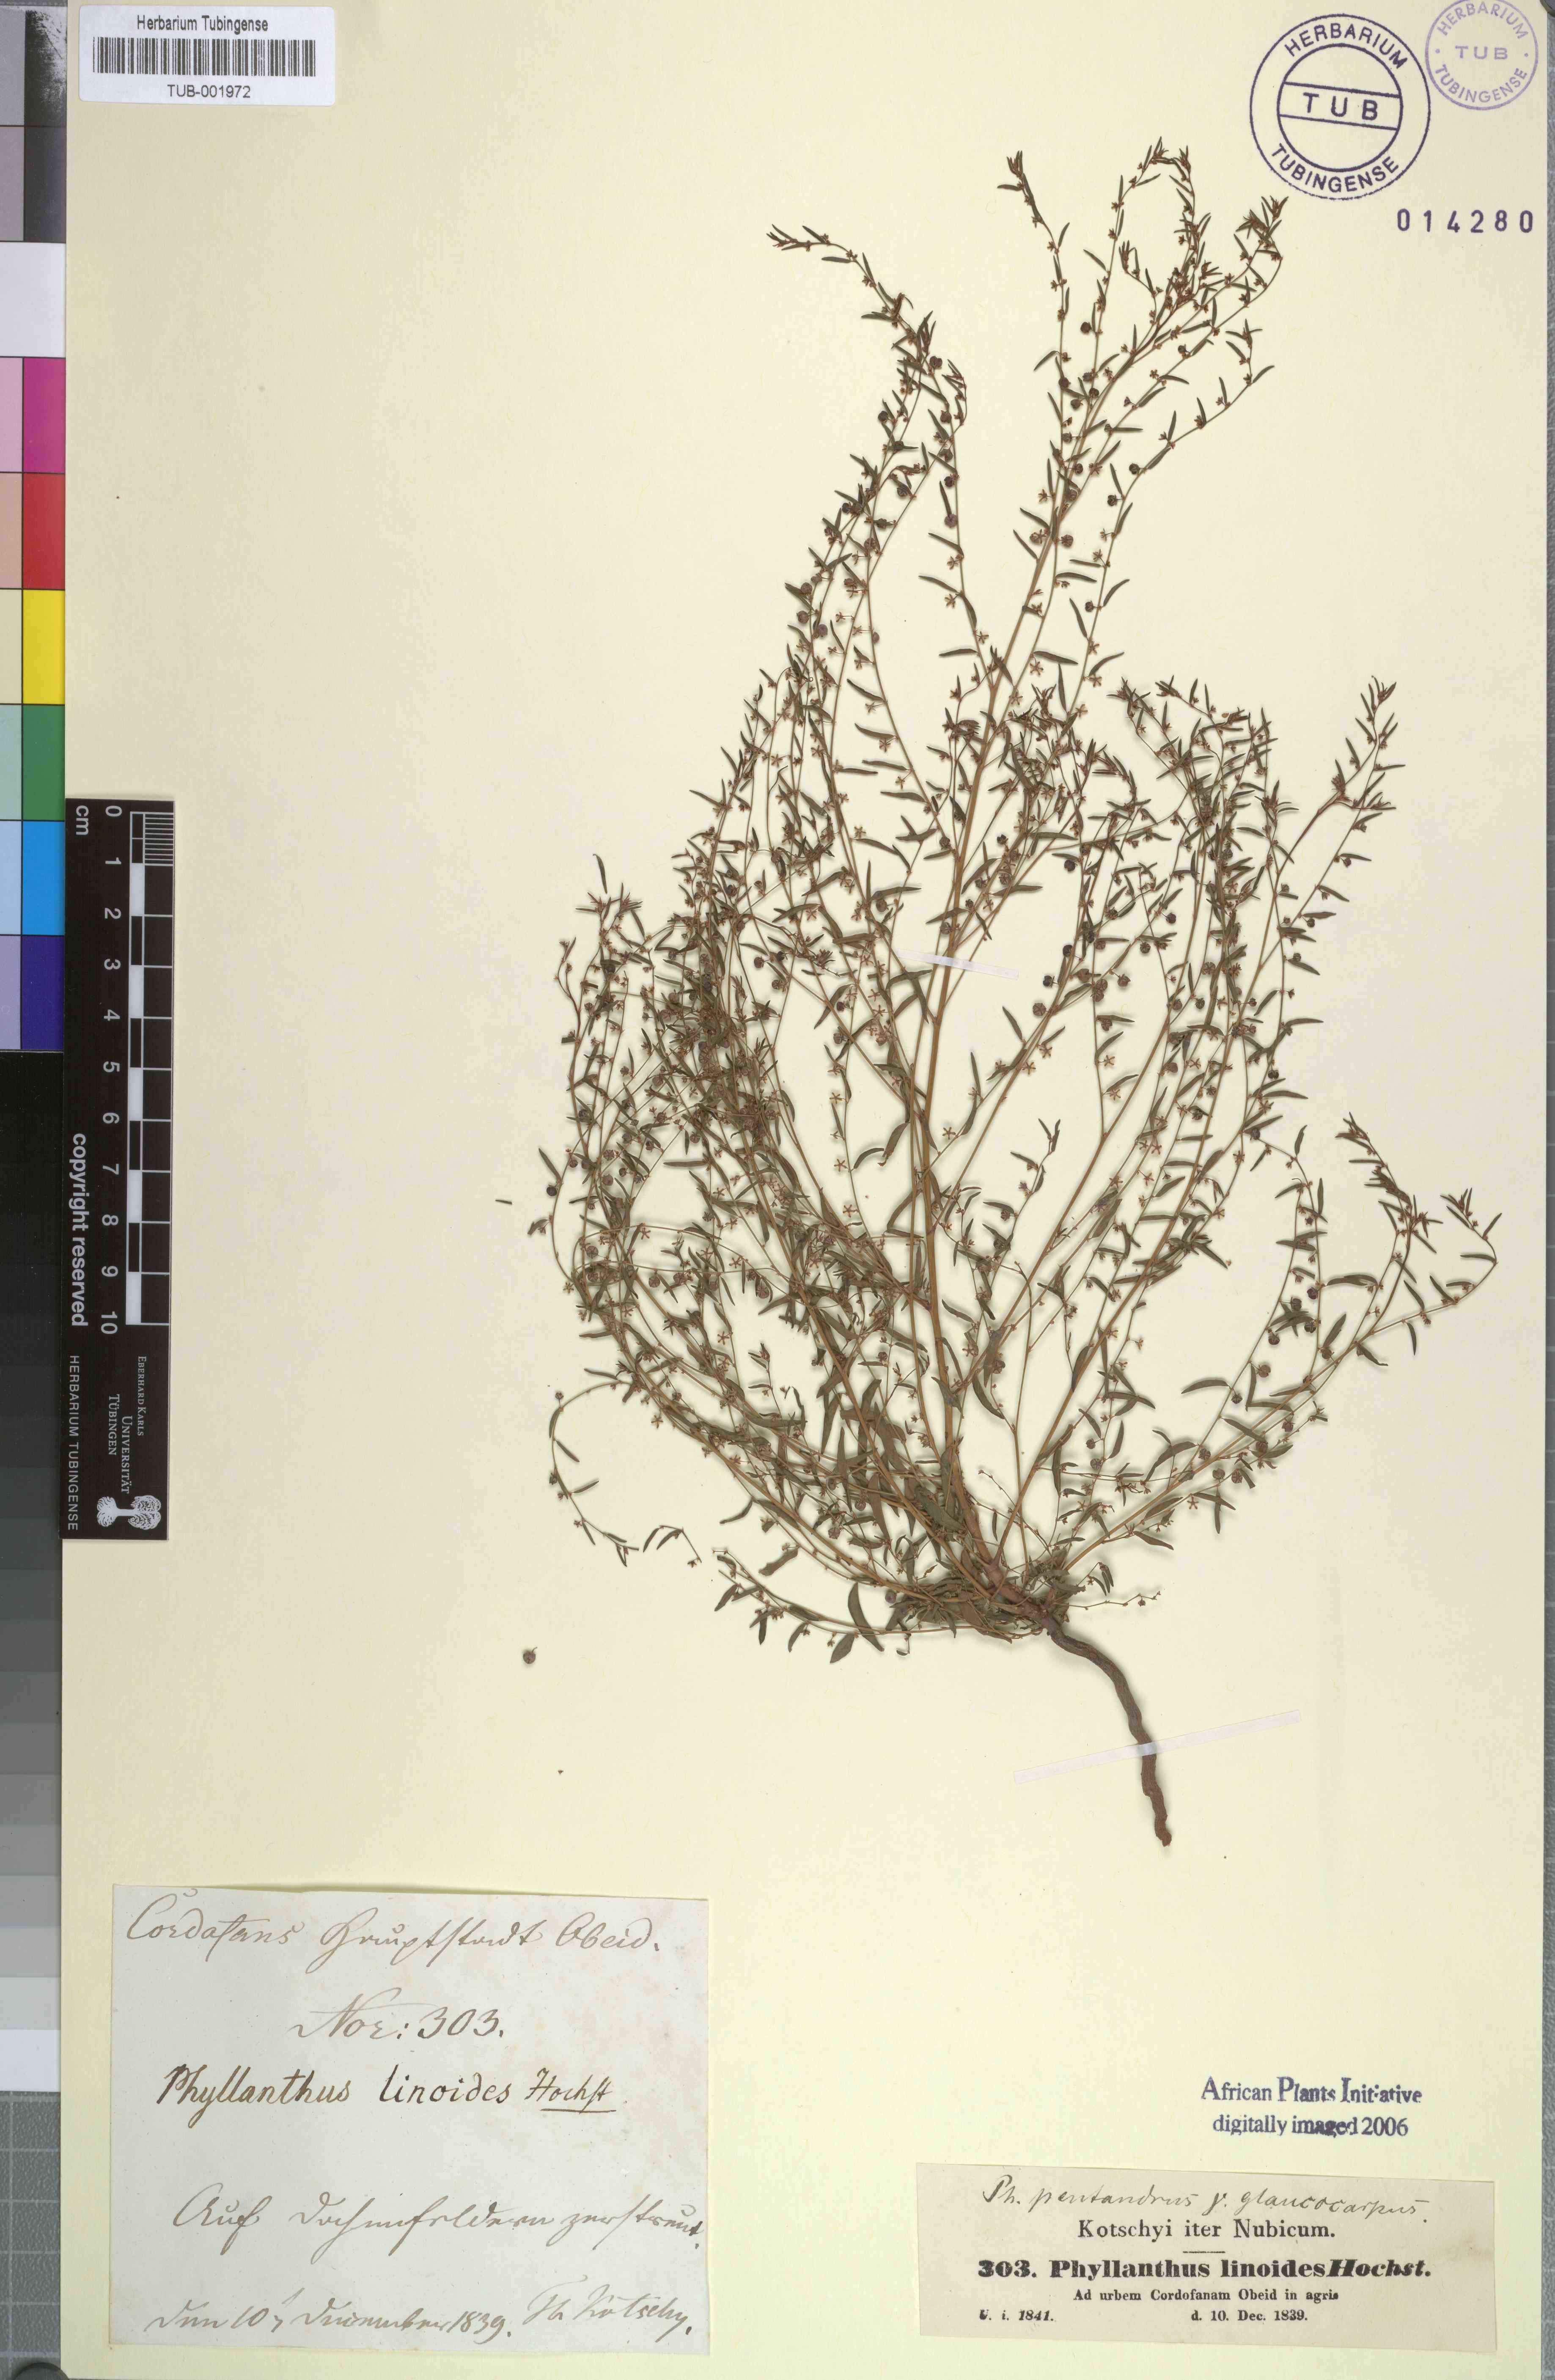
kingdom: Plantae
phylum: Tracheophyta
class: Magnoliopsida
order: Malpighiales
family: Phyllanthaceae
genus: Phyllanthus
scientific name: Phyllanthus pentandrus
